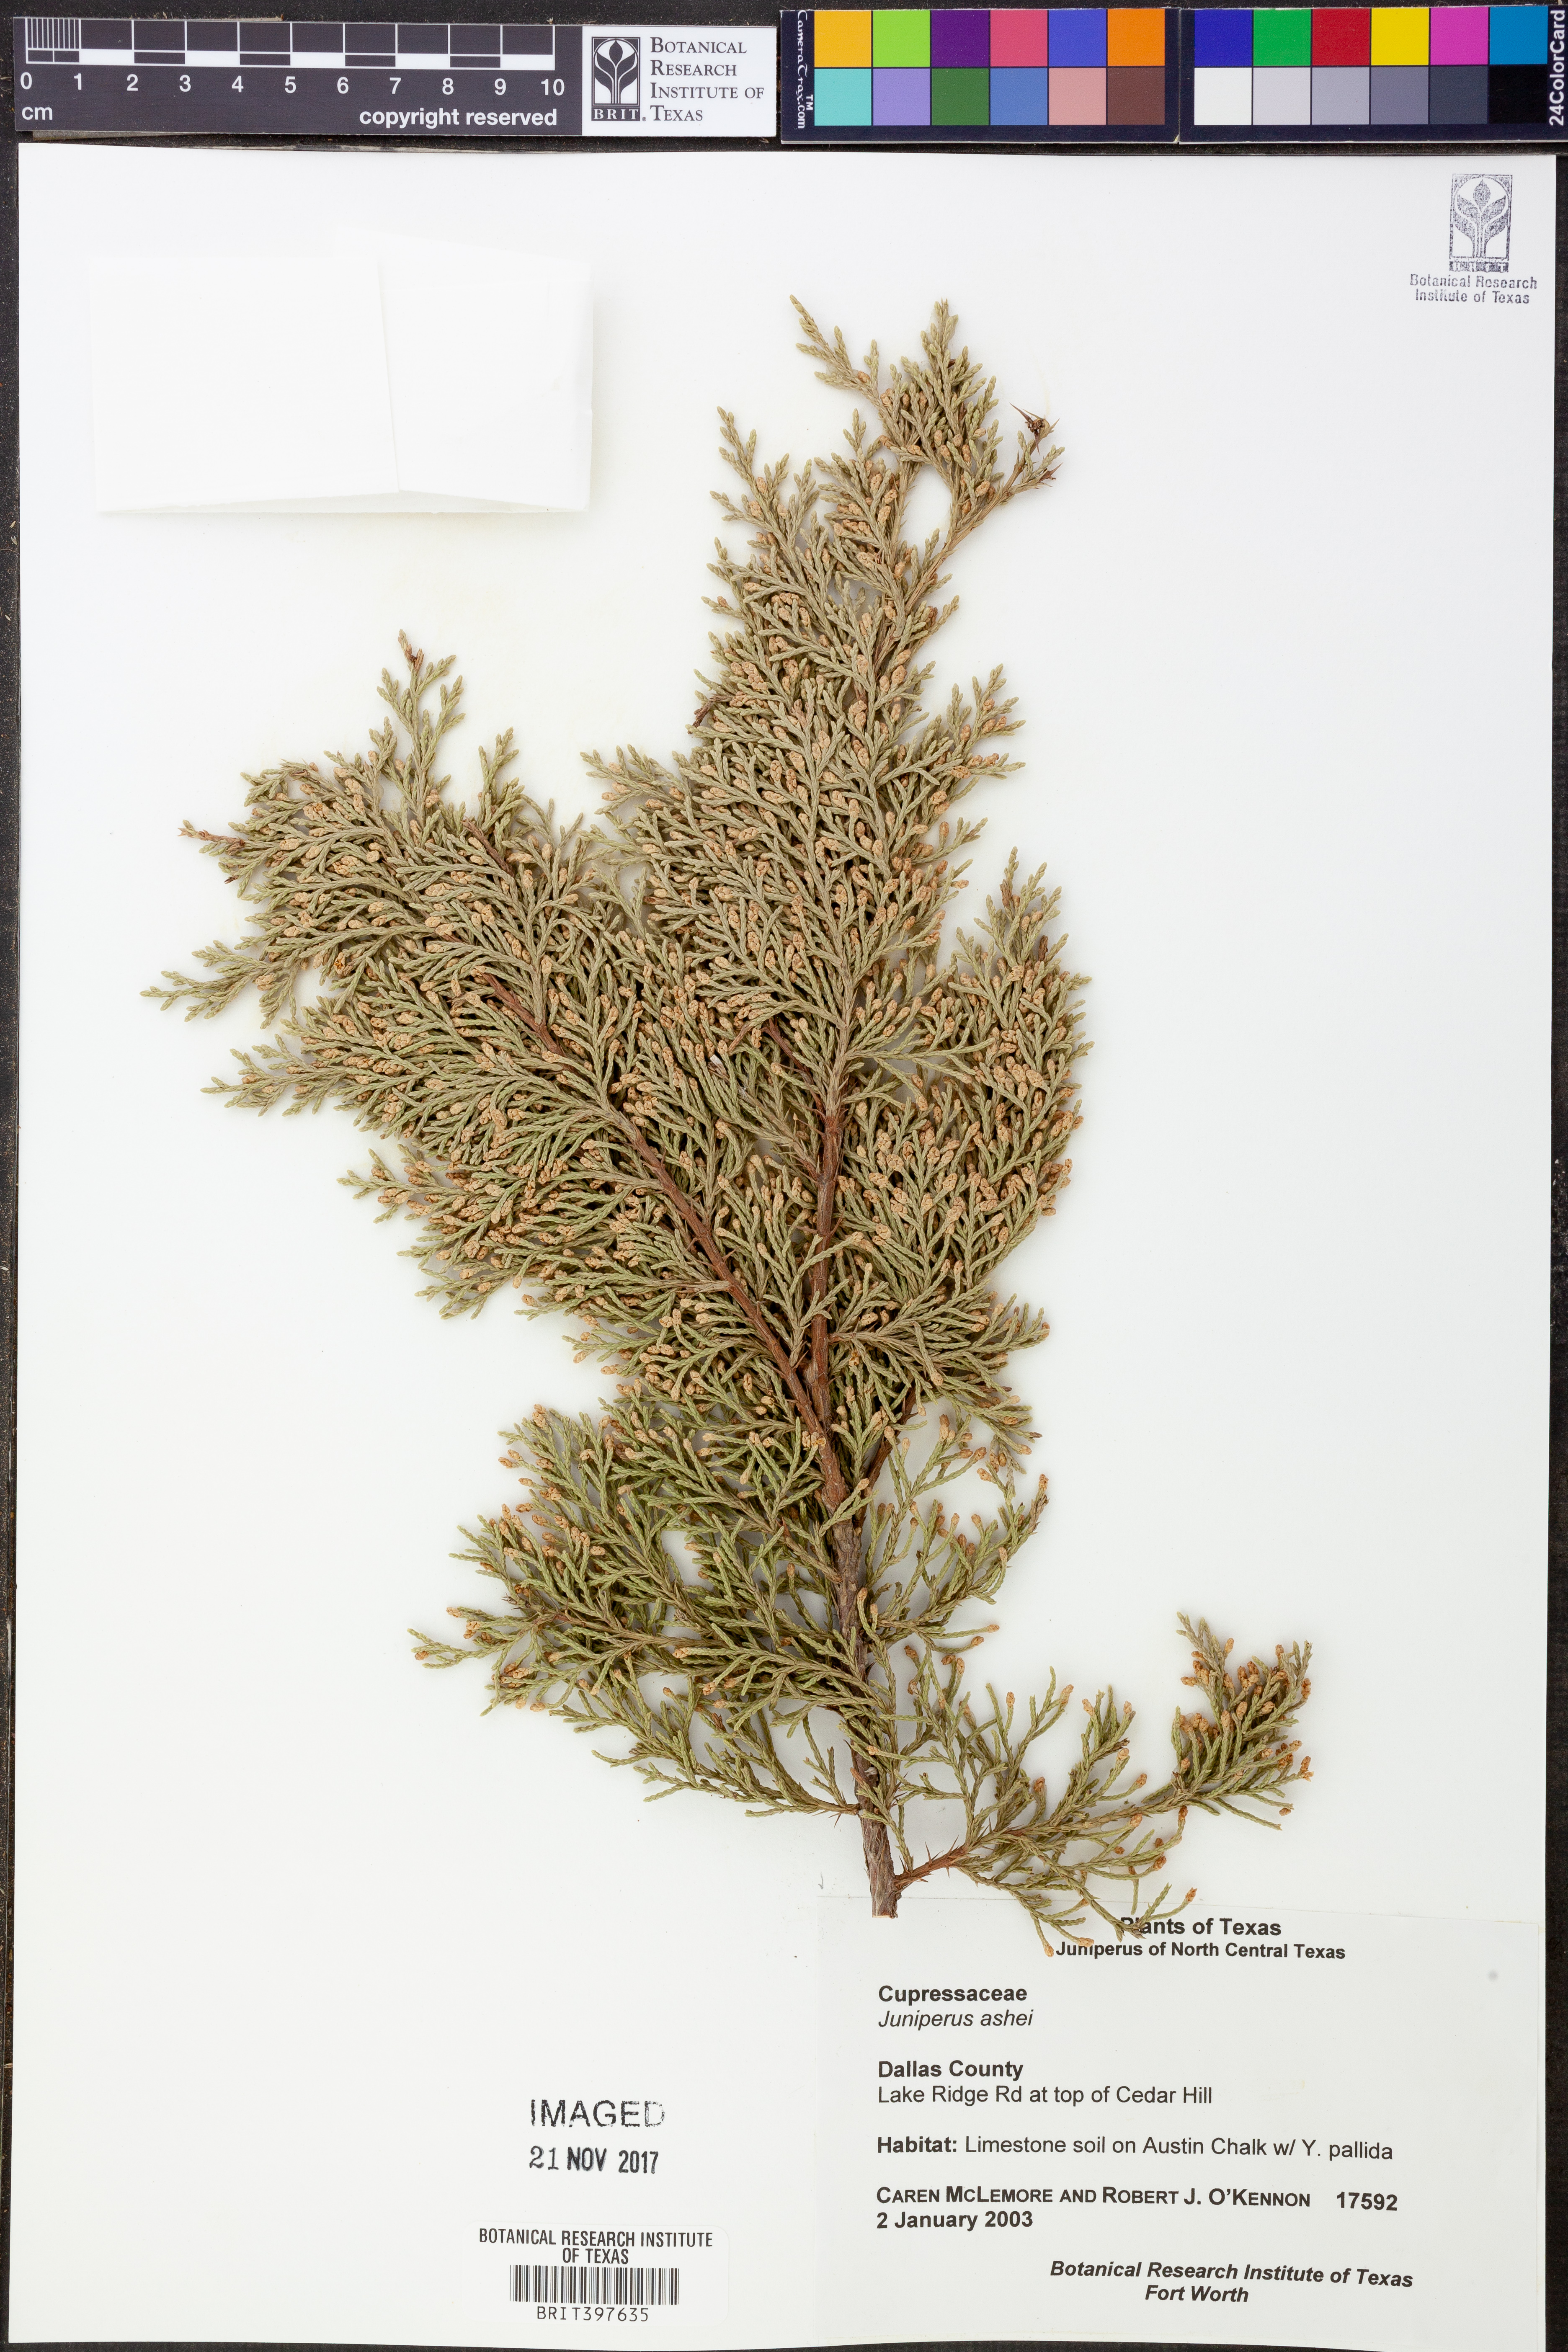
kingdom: Plantae
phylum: Tracheophyta
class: Pinopsida
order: Pinales
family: Cupressaceae
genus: Juniperus
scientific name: Juniperus ashei
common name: Mexican juniper
